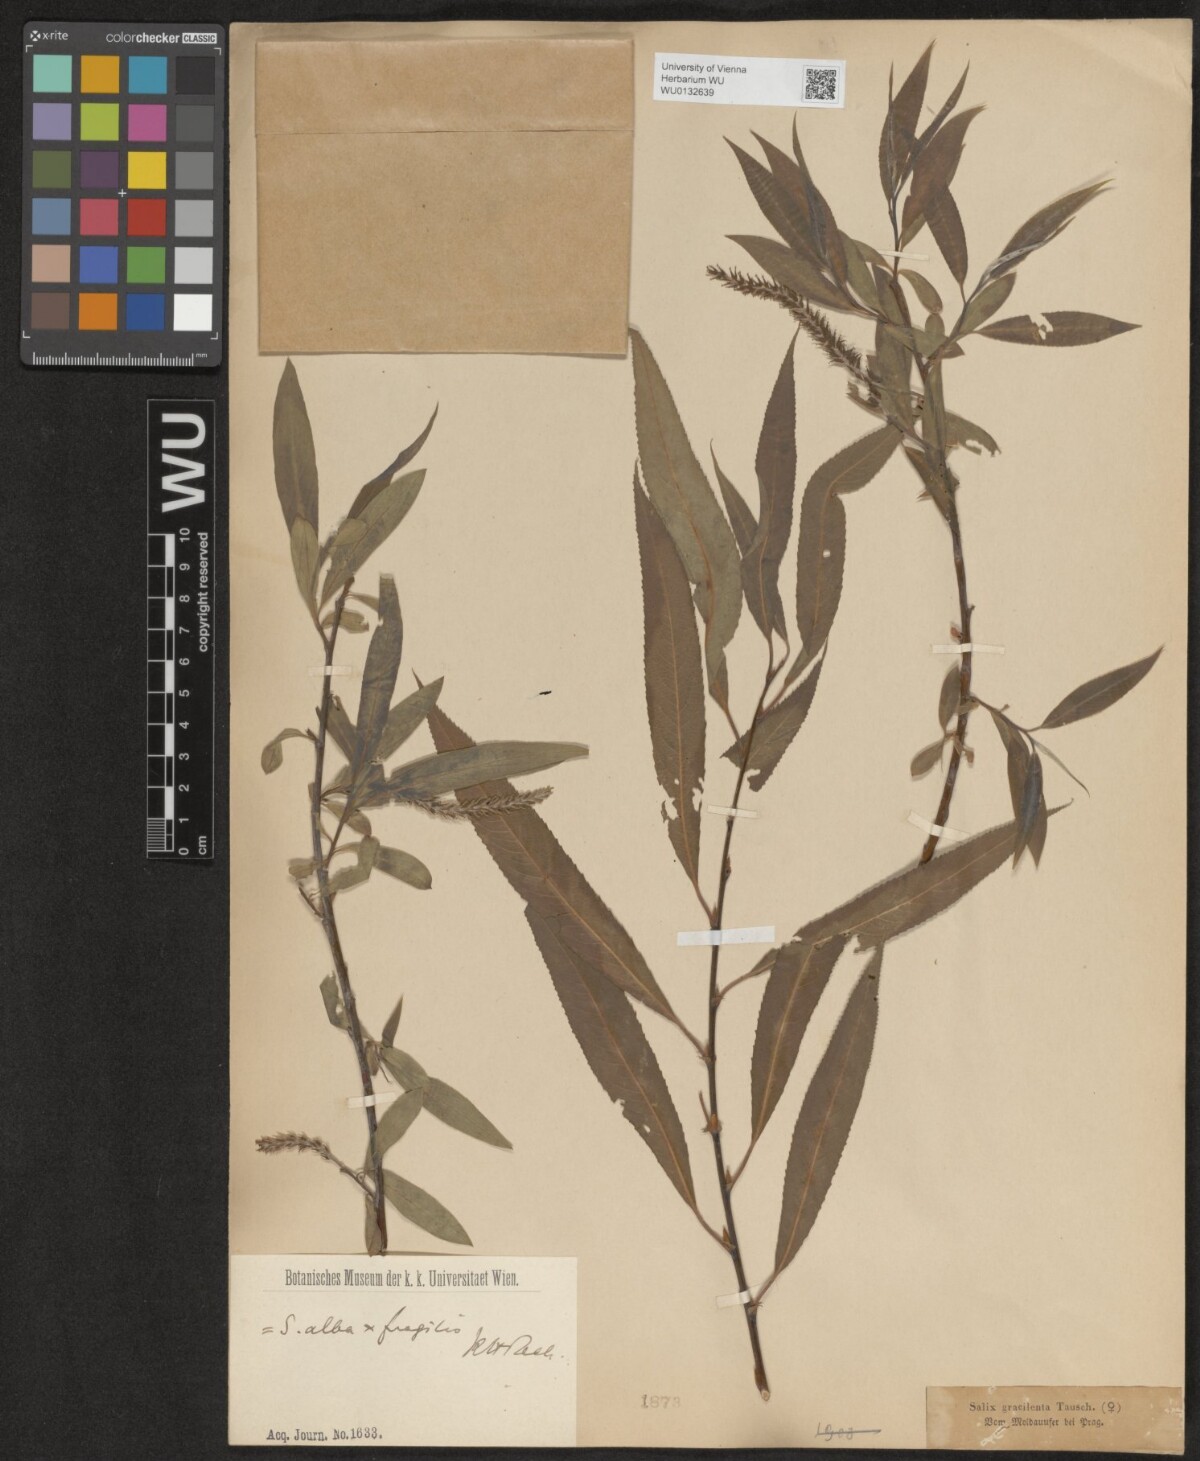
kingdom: Plantae
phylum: Tracheophyta
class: Magnoliopsida
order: Malpighiales
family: Salicaceae
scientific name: Salicaceae
